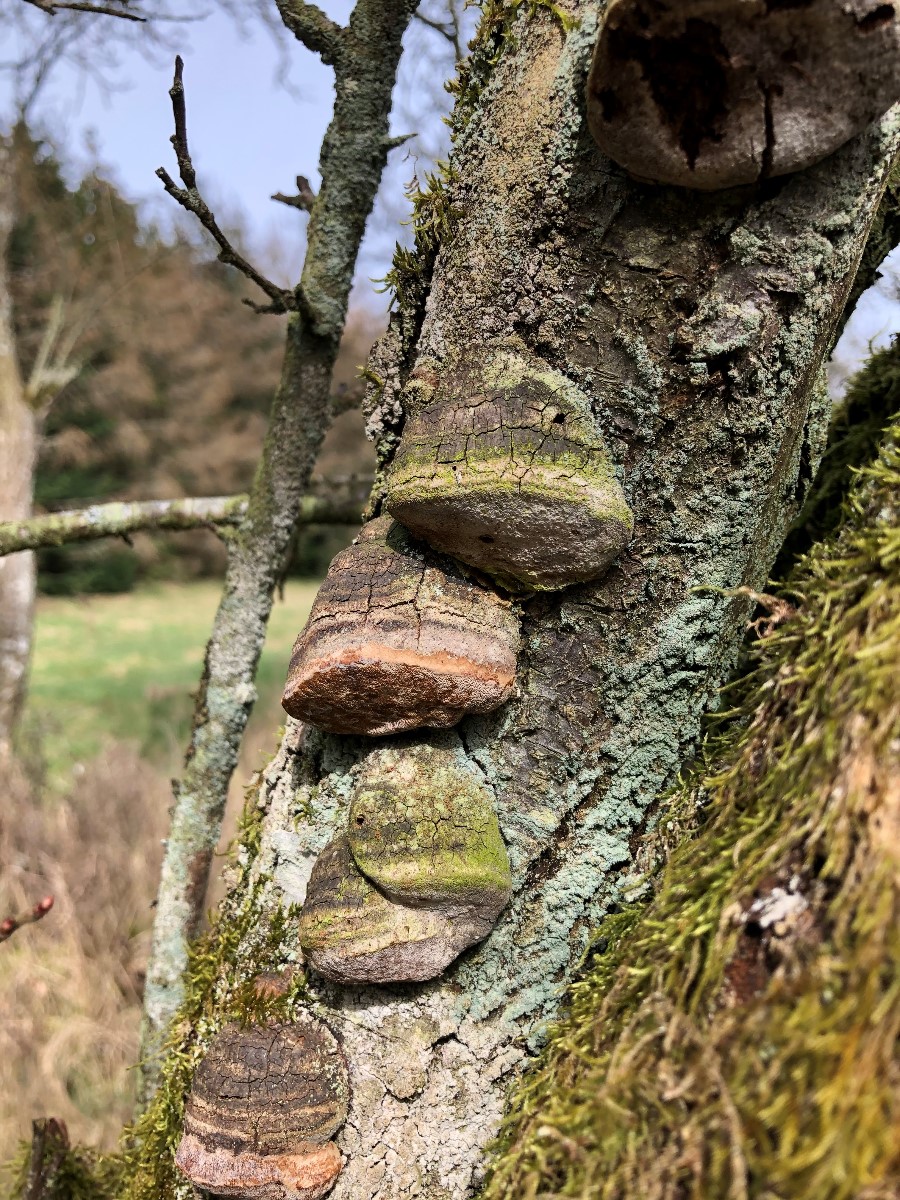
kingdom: Fungi
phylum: Basidiomycota
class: Agaricomycetes
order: Hymenochaetales
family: Hymenochaetaceae
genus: Phellinus
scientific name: Phellinus pomaceus
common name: blomme-ildporesvamp
